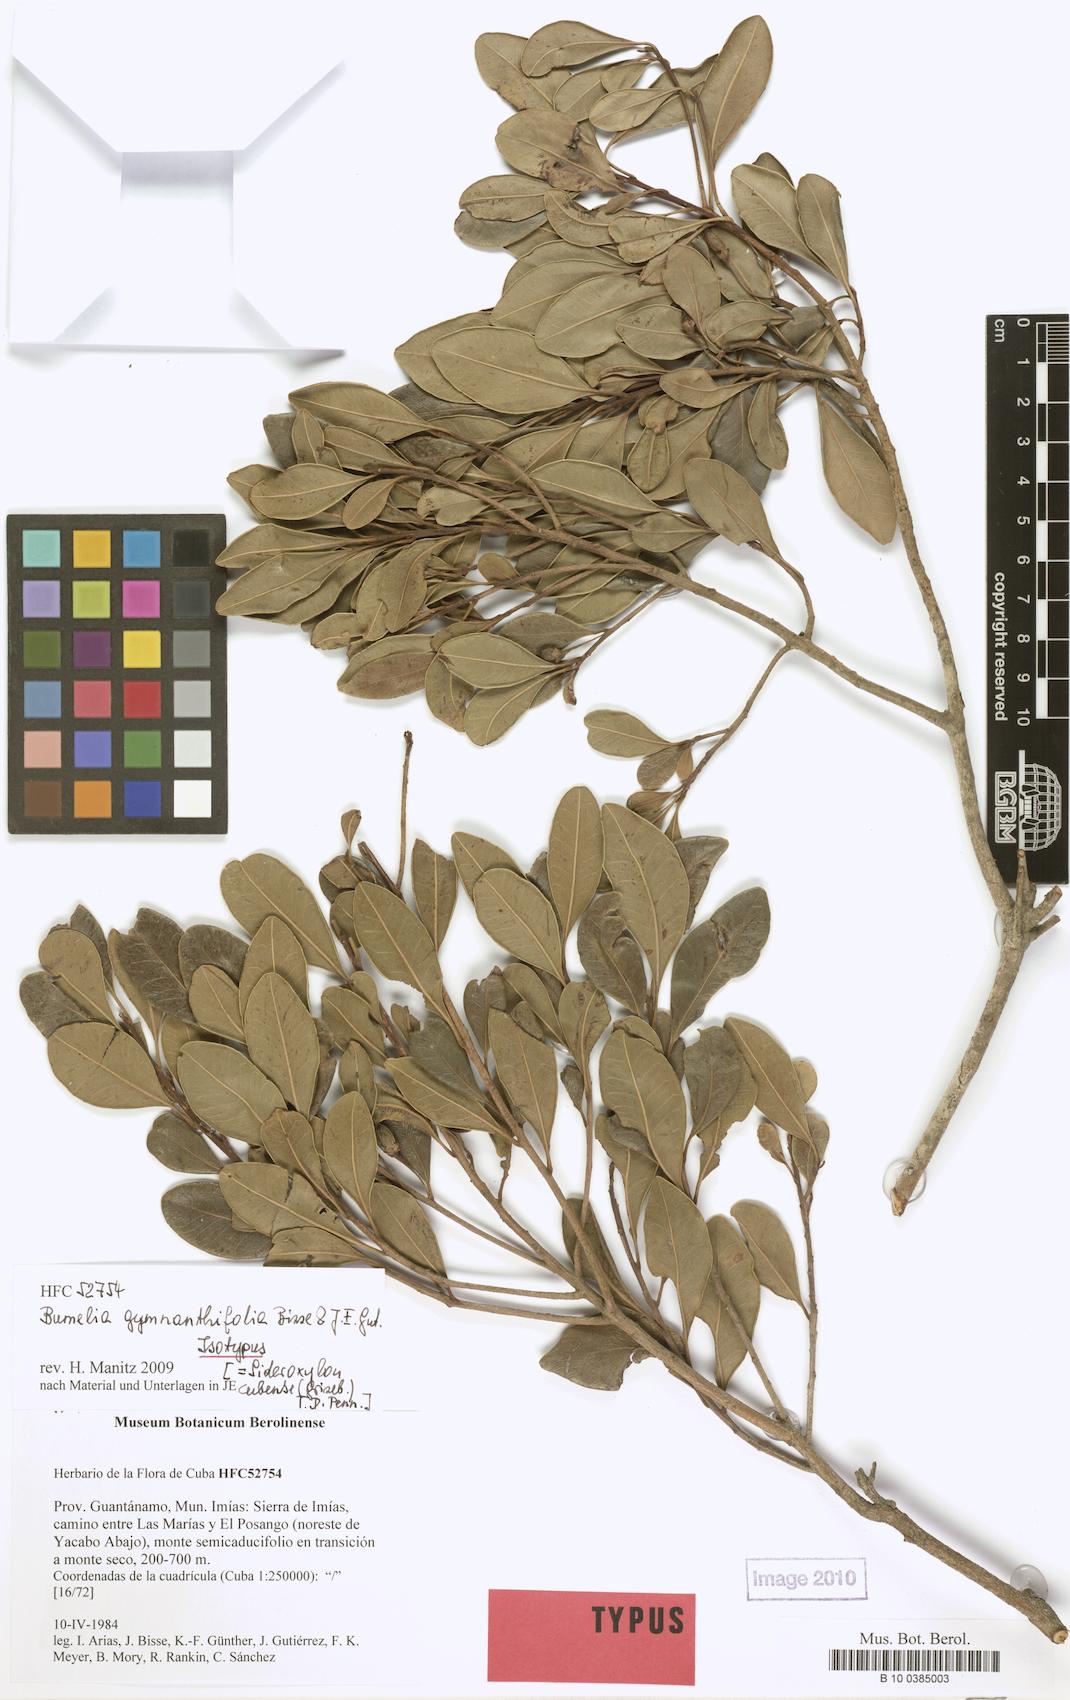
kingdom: Plantae
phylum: Tracheophyta
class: Magnoliopsida
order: Ericales
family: Sapotaceae
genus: Sideroxylon
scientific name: Sideroxylon cubense
